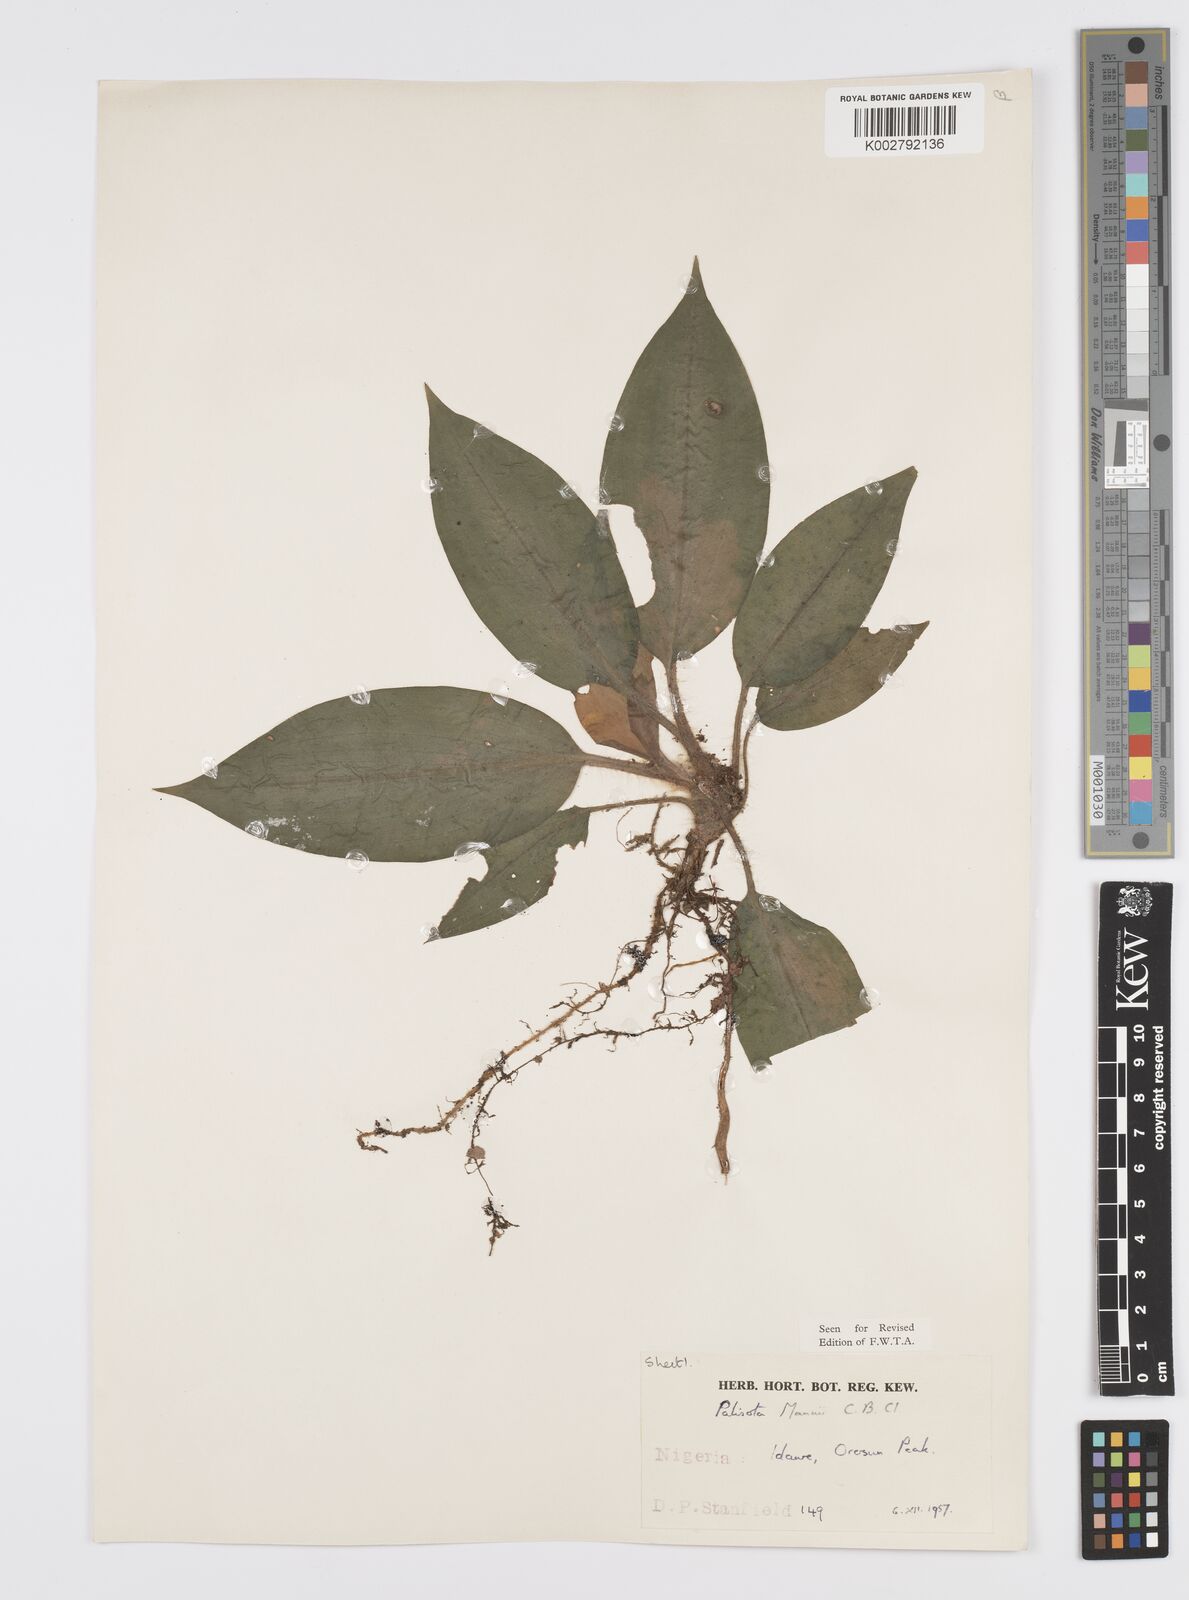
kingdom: Plantae
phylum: Tracheophyta
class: Liliopsida
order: Commelinales
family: Commelinaceae
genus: Palisota
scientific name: Palisota mannii
